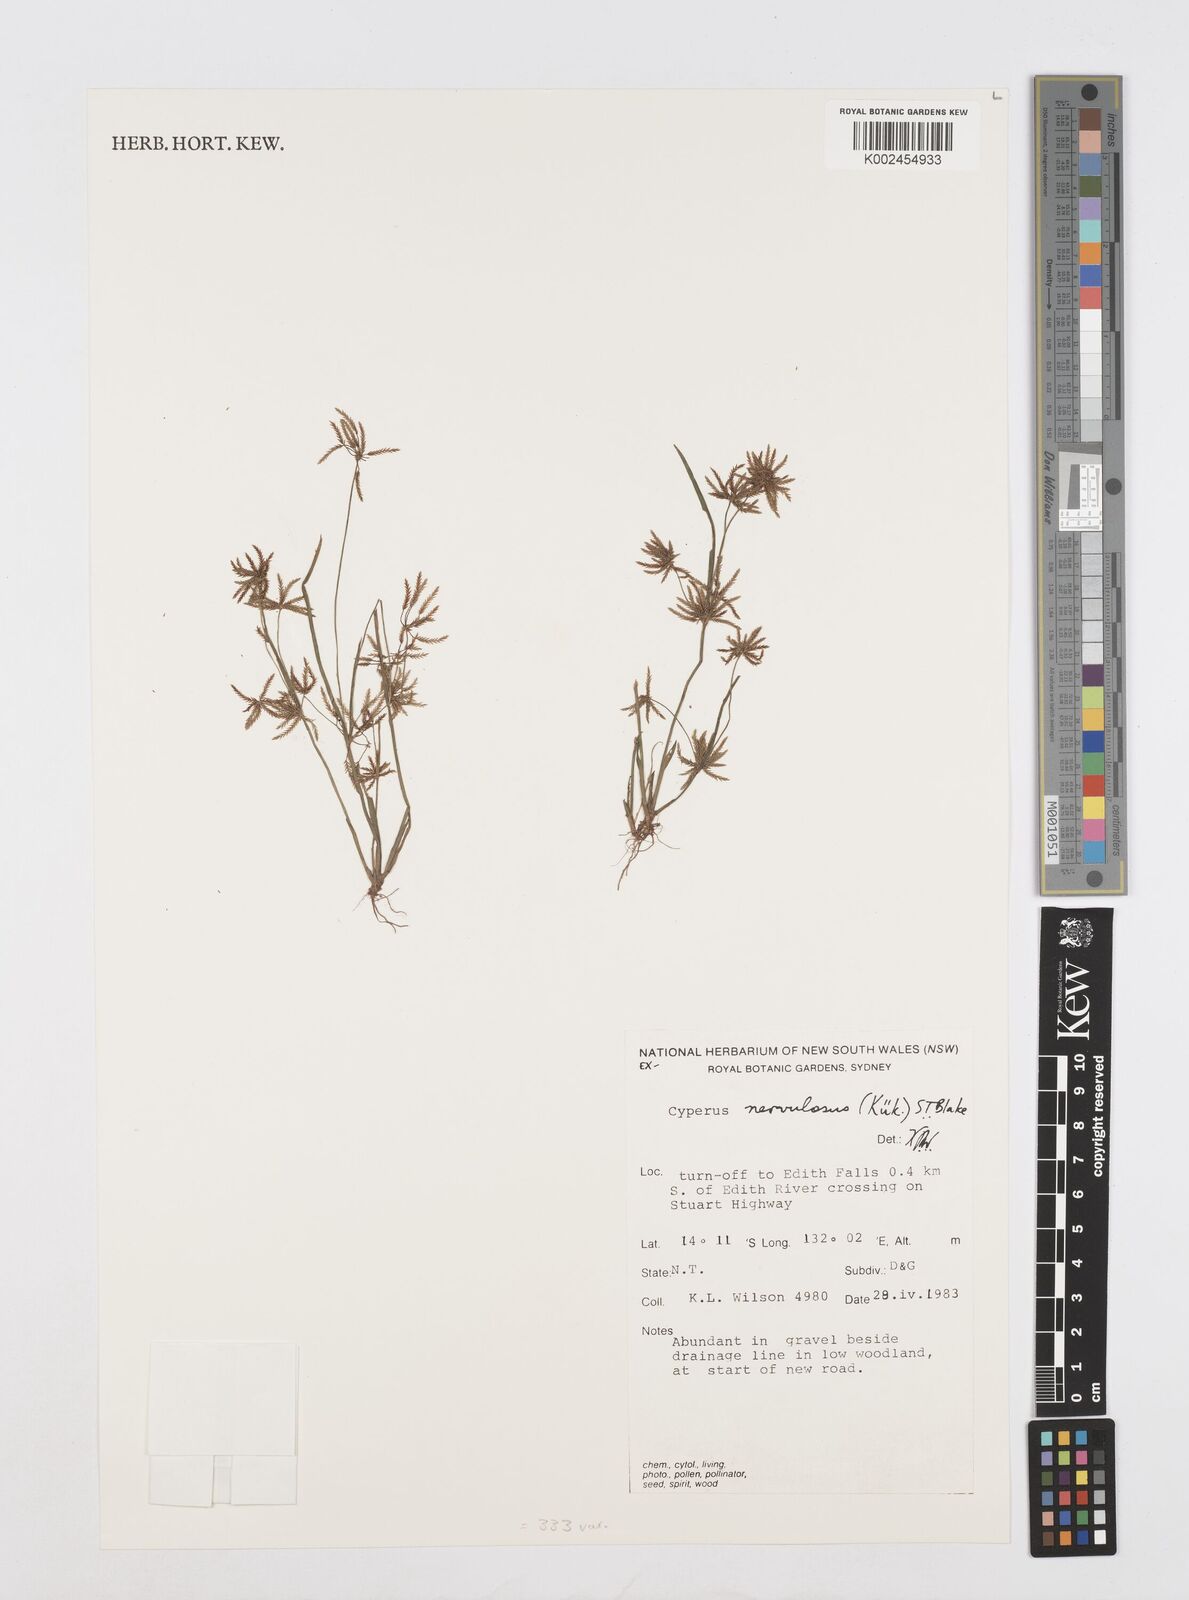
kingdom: Plantae
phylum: Tracheophyta
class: Liliopsida
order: Poales
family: Cyperaceae
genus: Cyperus
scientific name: Cyperus nervulosus
